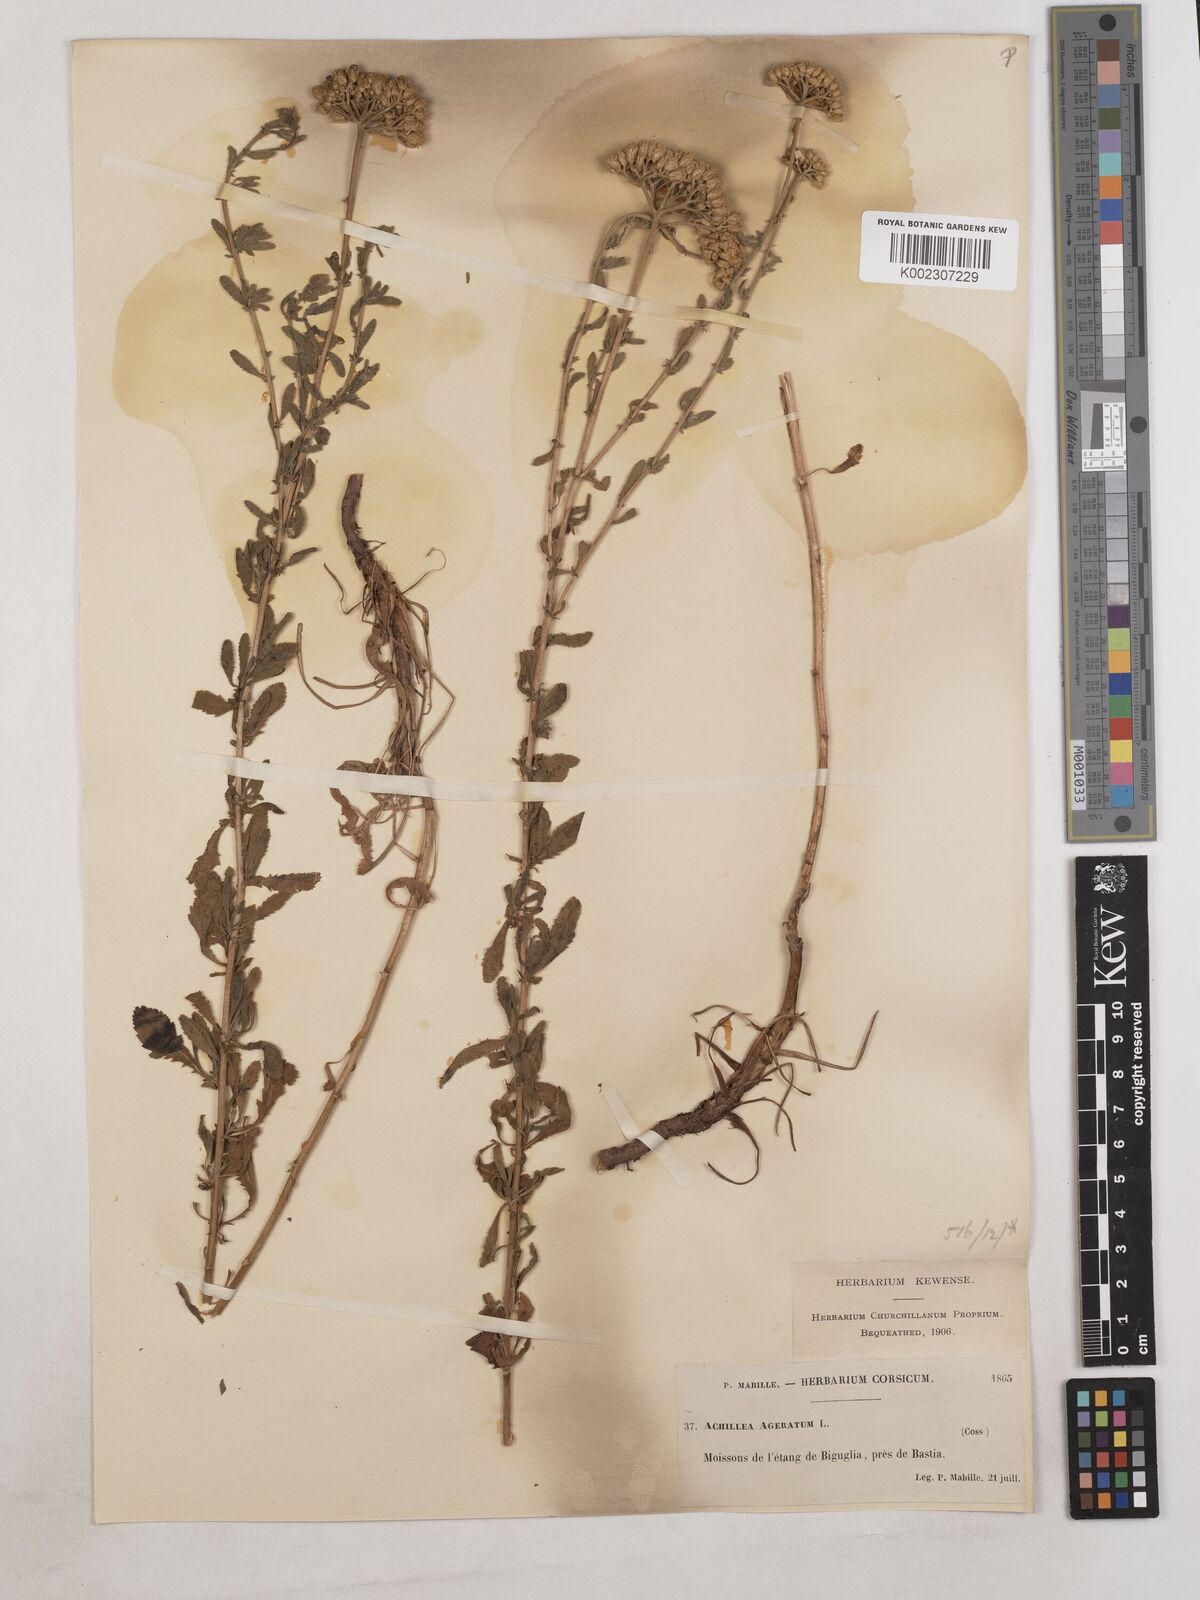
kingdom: Plantae
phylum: Tracheophyta
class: Magnoliopsida
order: Asterales
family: Asteraceae
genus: Achillea
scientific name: Achillea ageratum
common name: Sweet-nancy
